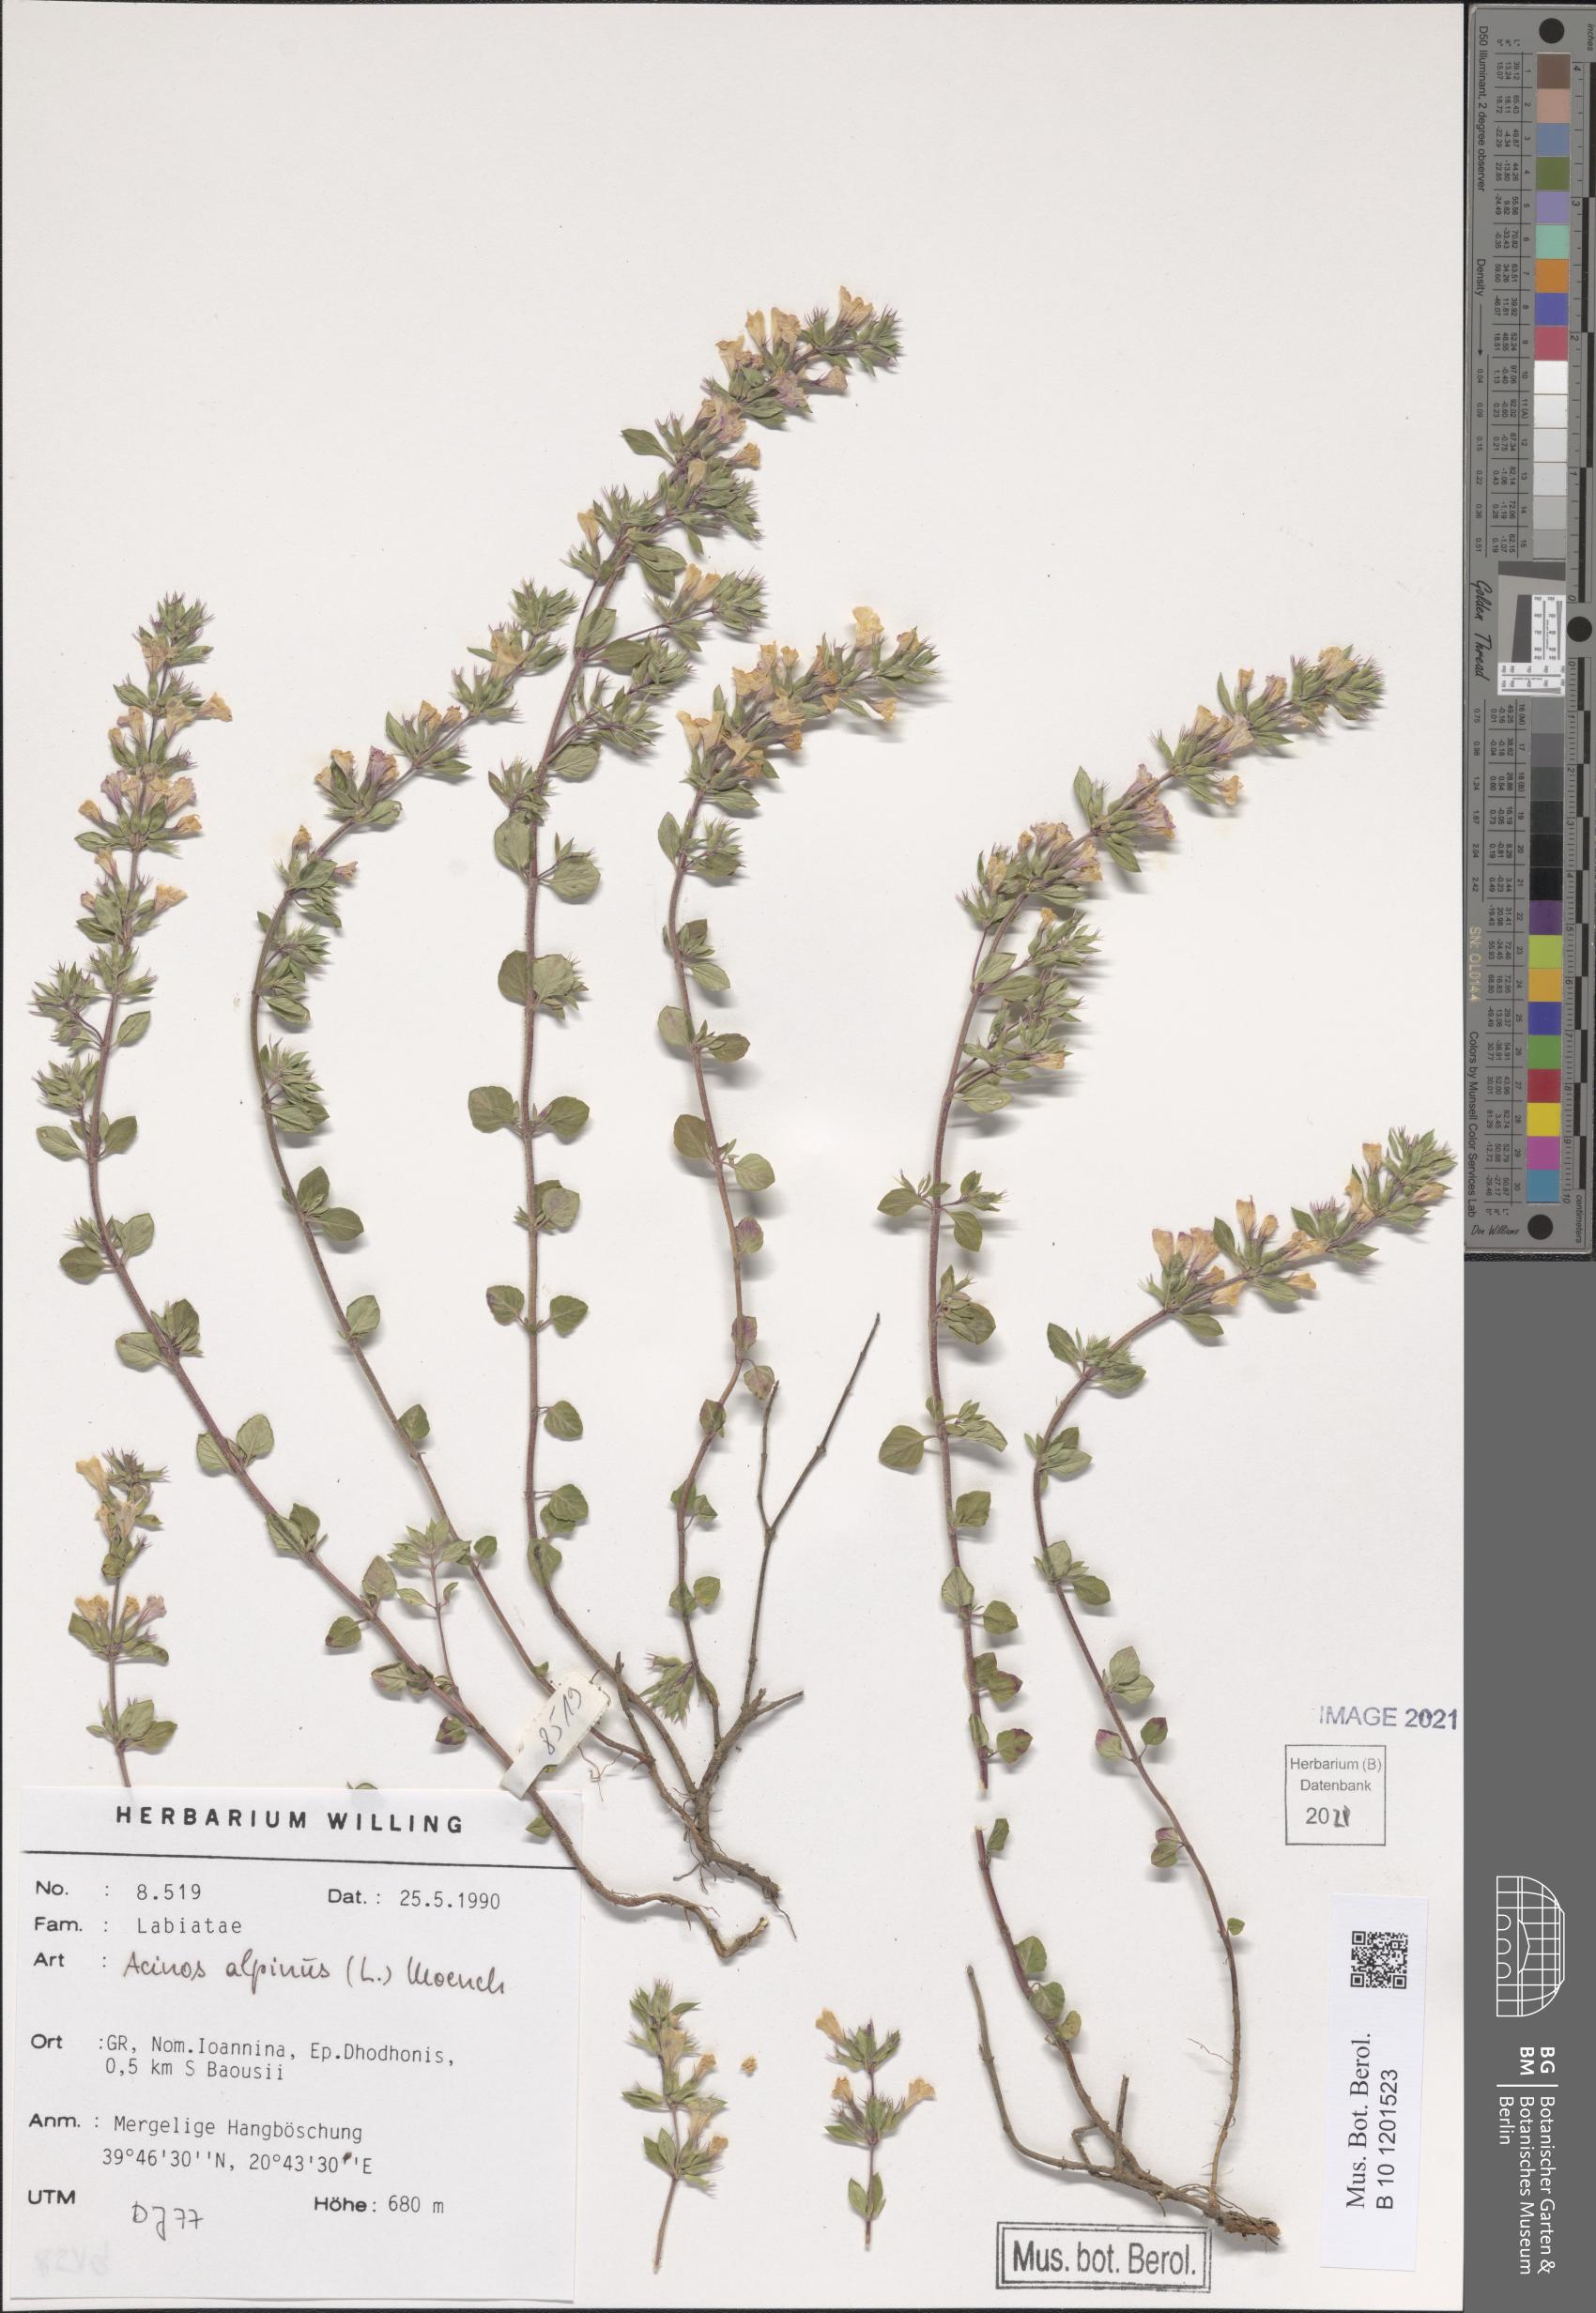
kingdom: Plantae
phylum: Tracheophyta
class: Magnoliopsida
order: Lamiales
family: Lamiaceae
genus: Clinopodium
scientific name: Clinopodium alpinum
